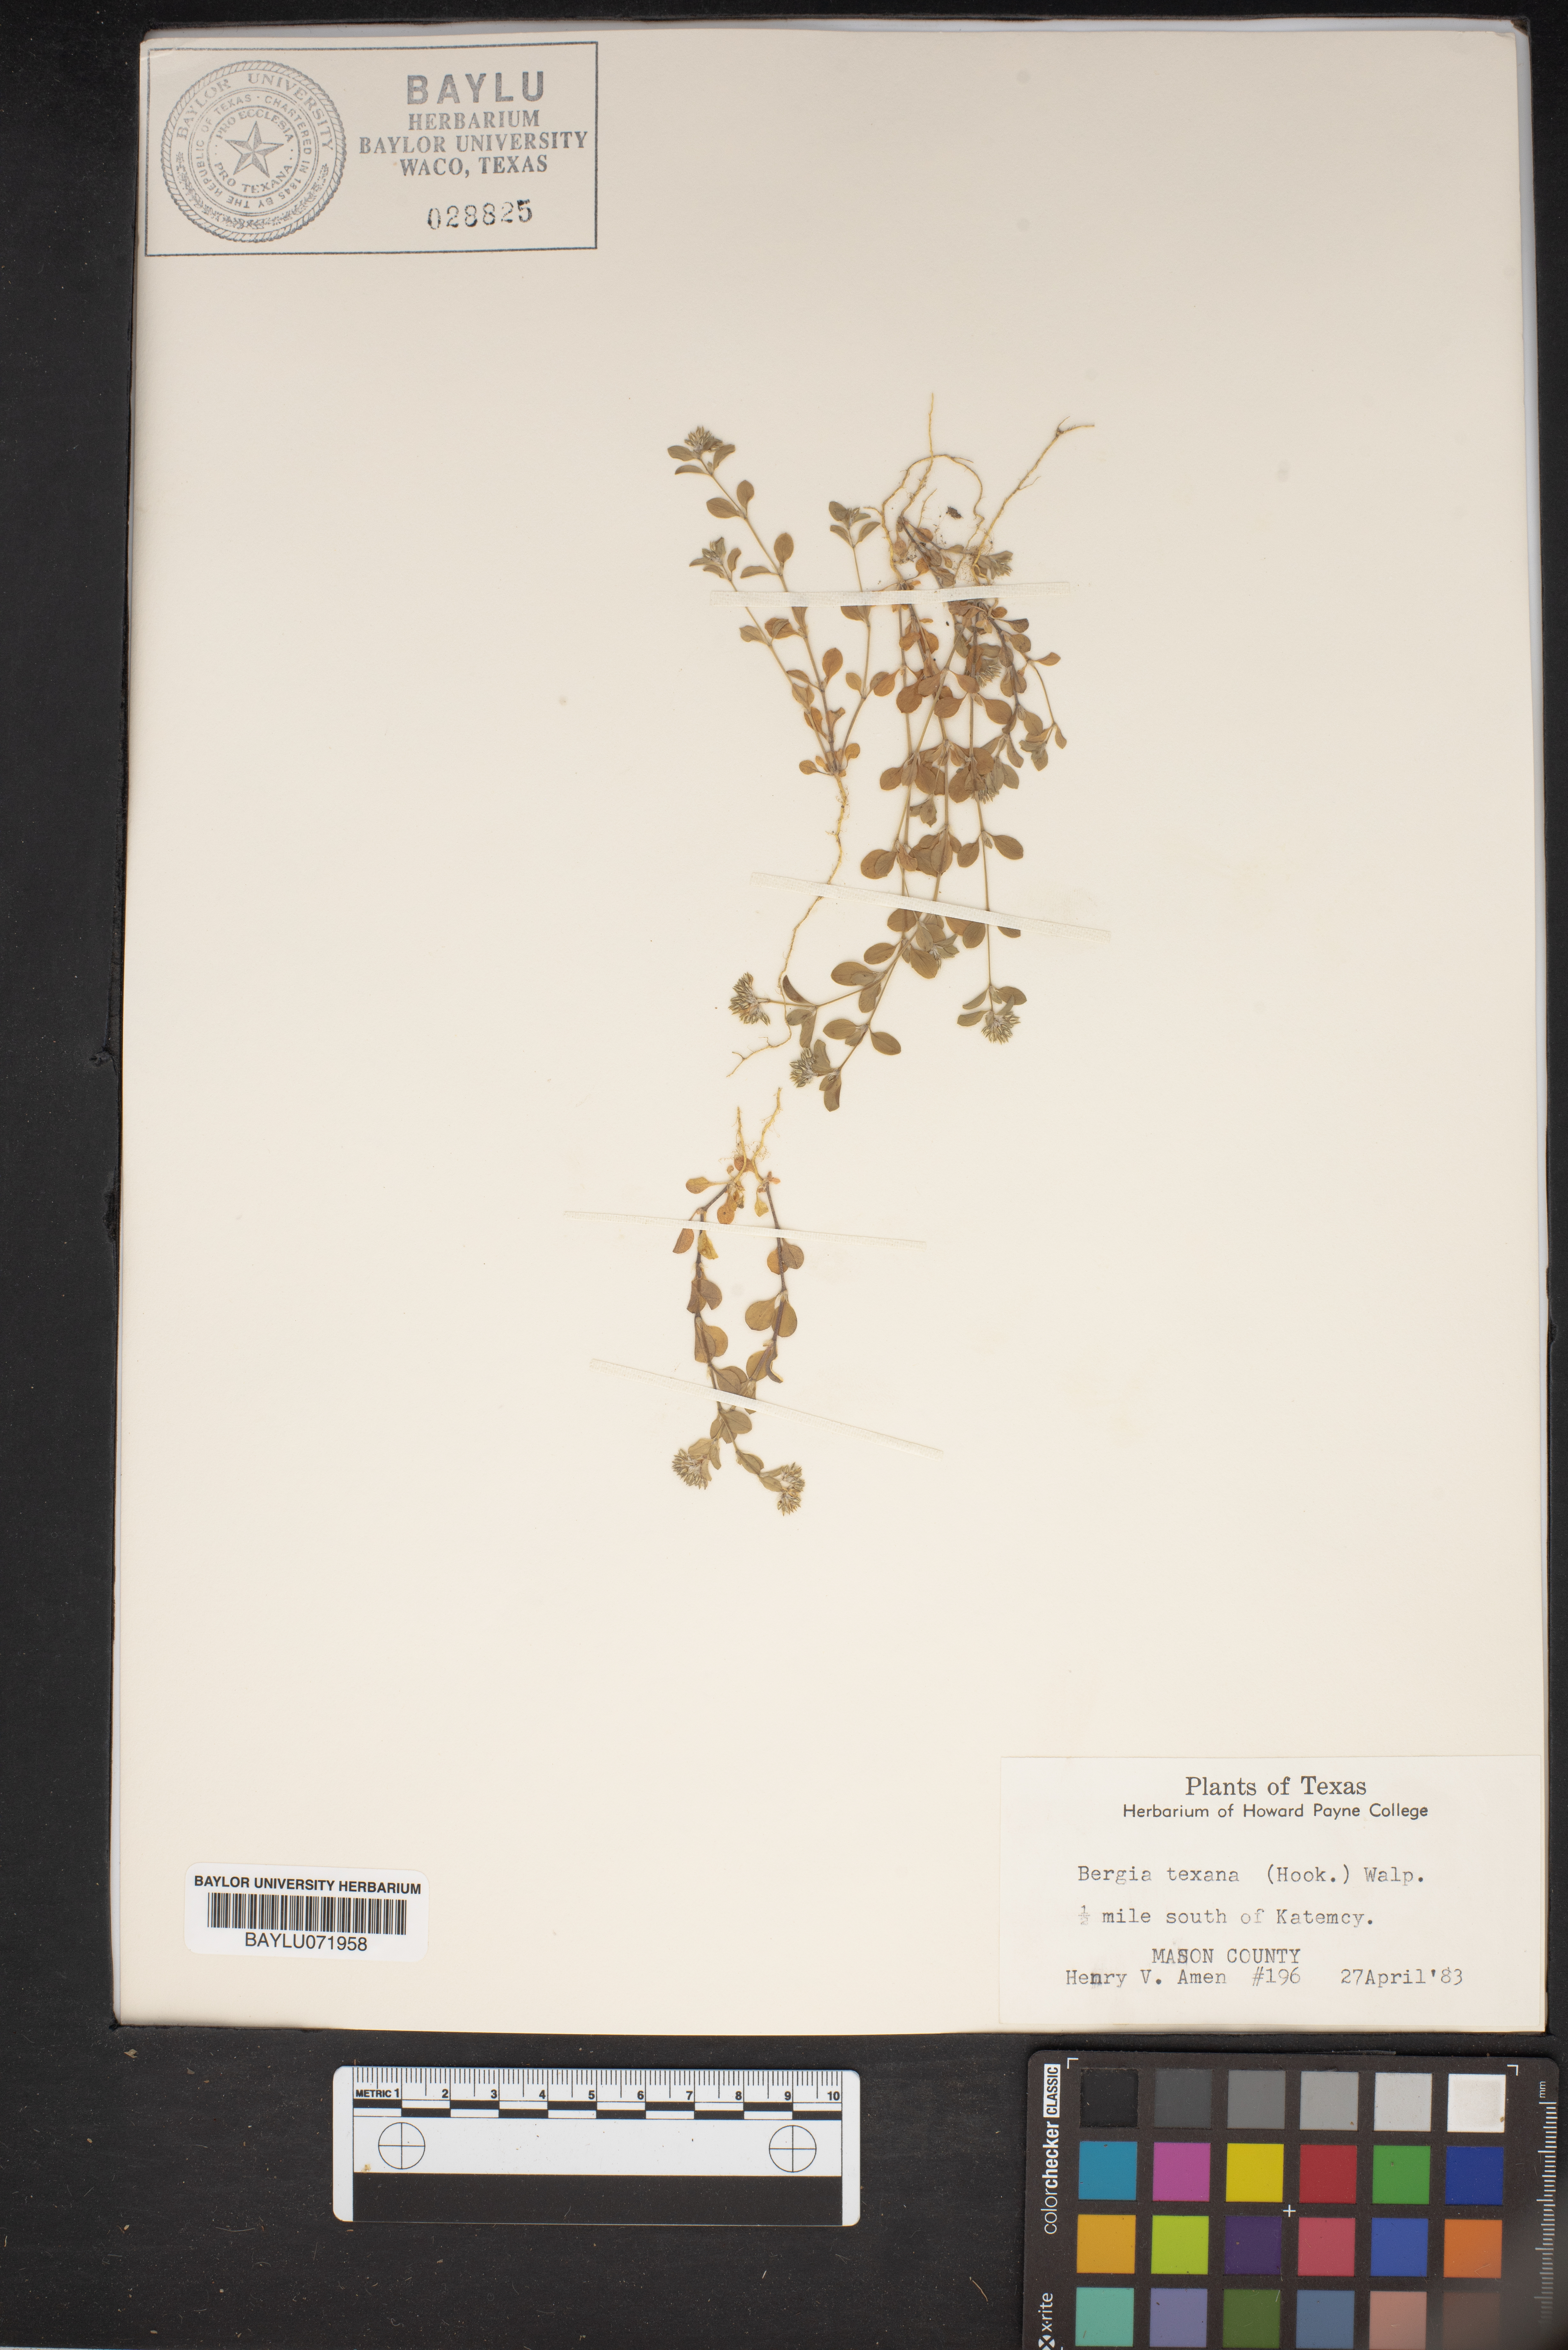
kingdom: Plantae
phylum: Tracheophyta
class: Magnoliopsida
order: Malpighiales
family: Elatinaceae
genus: Bergia
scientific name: Bergia texana
